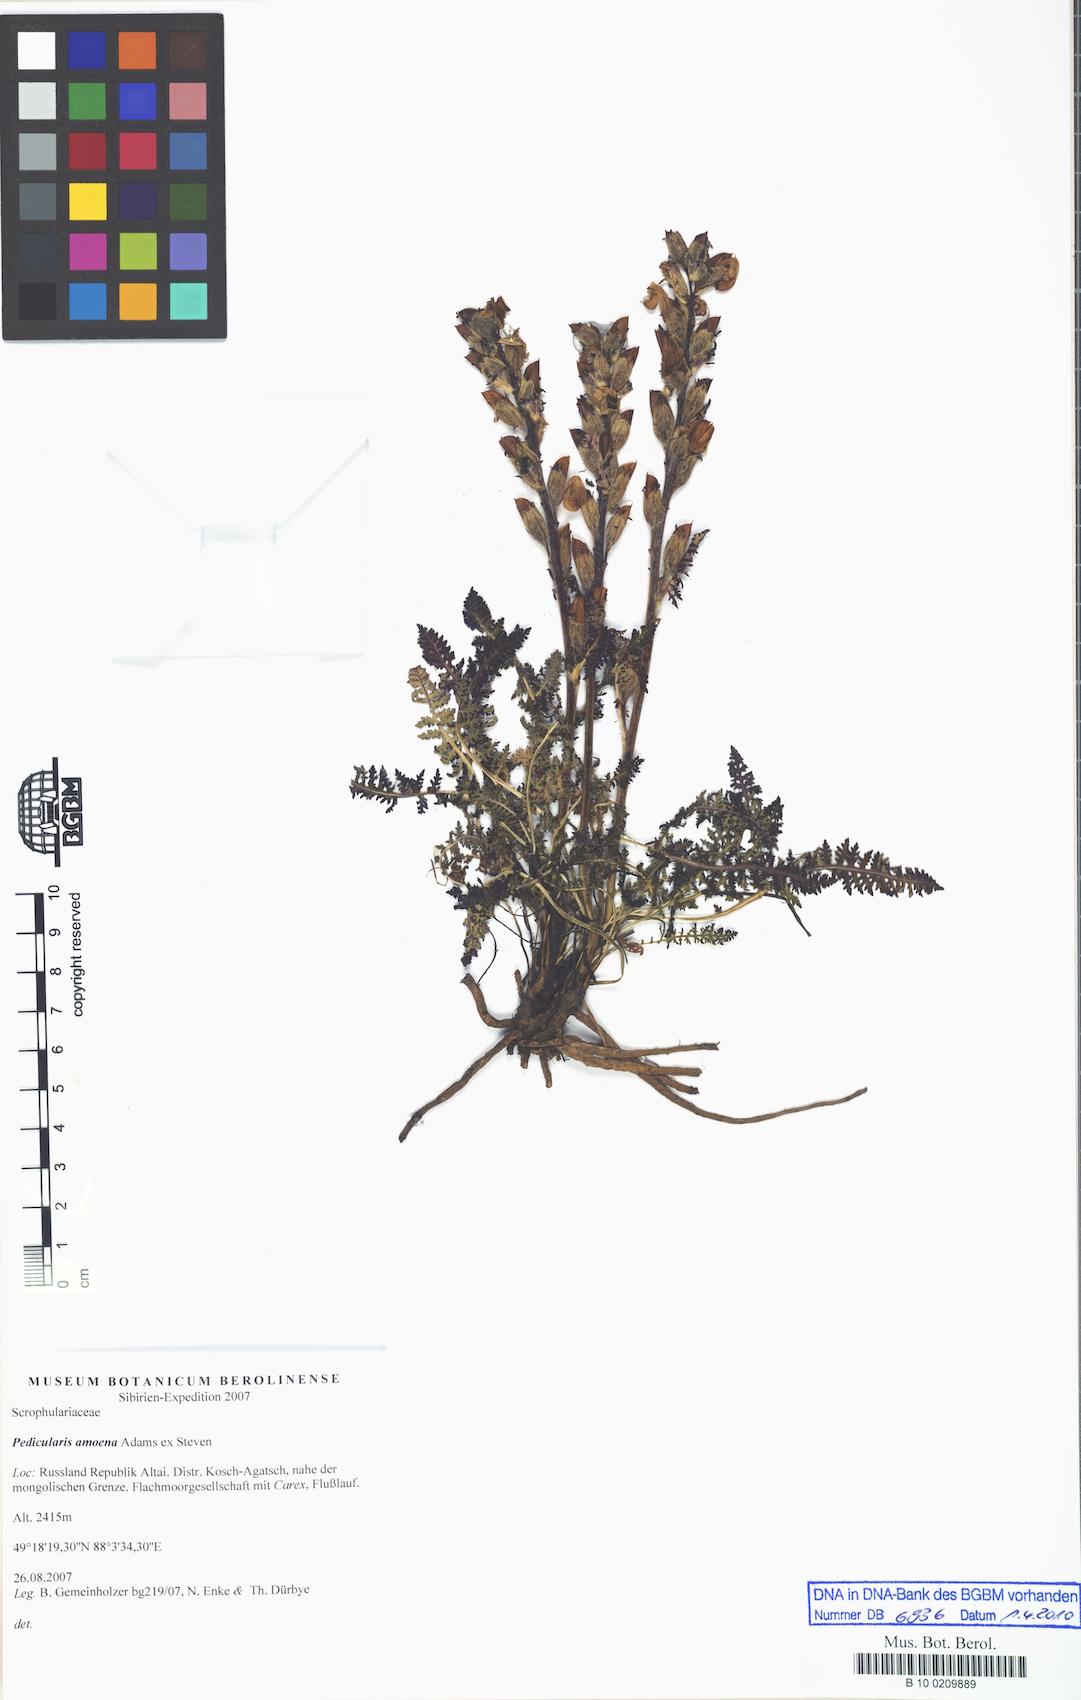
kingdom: Plantae
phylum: Tracheophyta
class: Magnoliopsida
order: Lamiales
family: Orobanchaceae
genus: Pedicularis
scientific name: Pedicularis amoena
